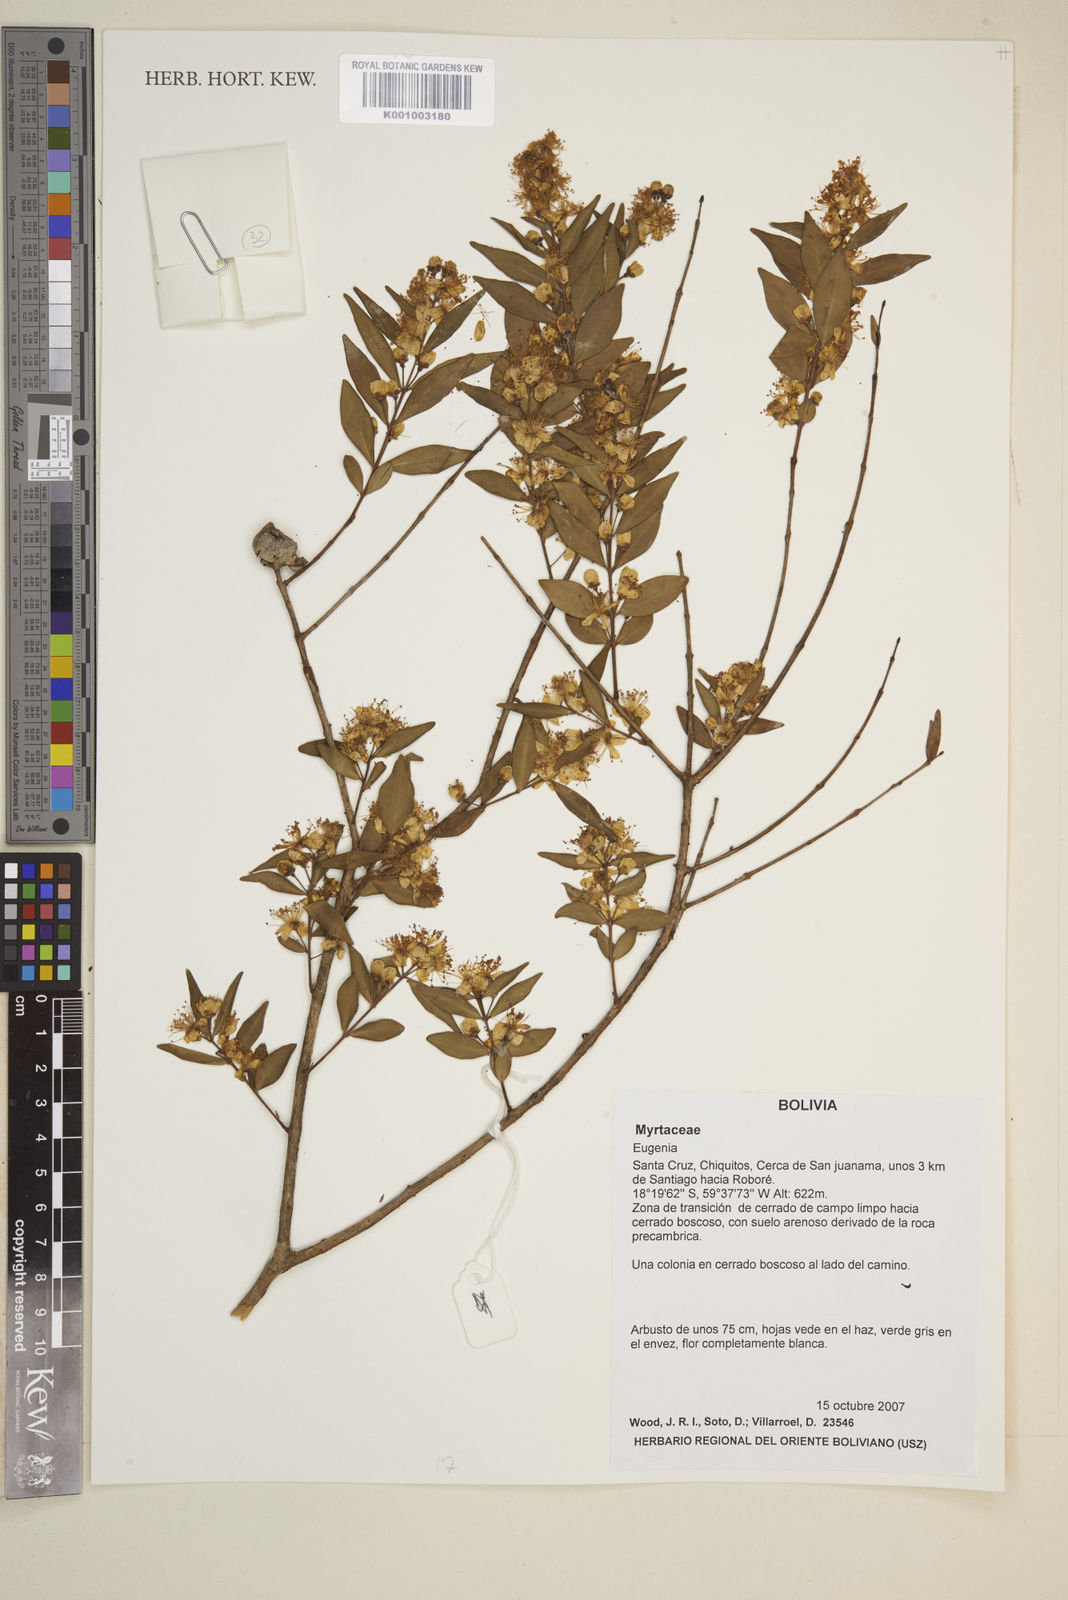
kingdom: Plantae
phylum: Tracheophyta
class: Magnoliopsida
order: Myrtales
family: Myrtaceae
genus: Eugenia
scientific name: Eugenia
